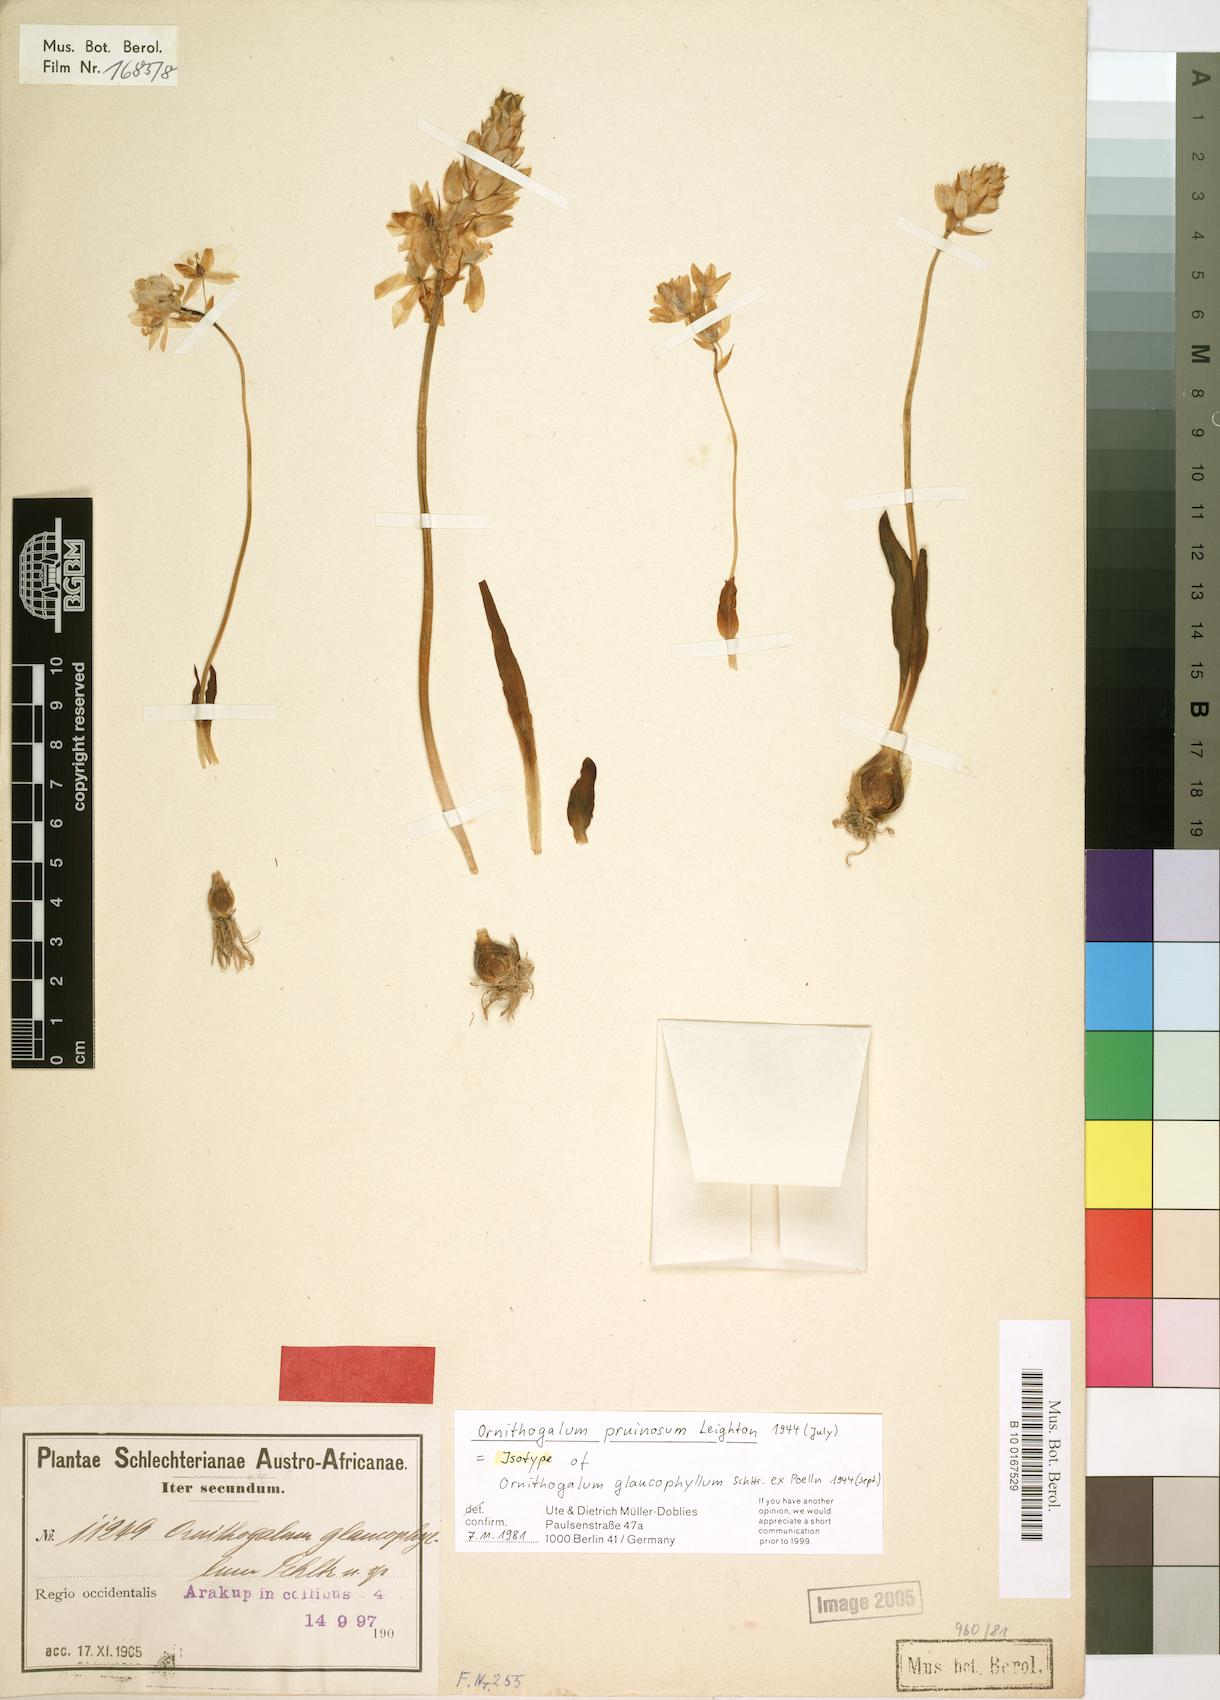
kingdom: Plantae
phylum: Tracheophyta
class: Liliopsida
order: Asparagales
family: Asparagaceae
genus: Ornithogalum
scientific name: Ornithogalum pruinosum
